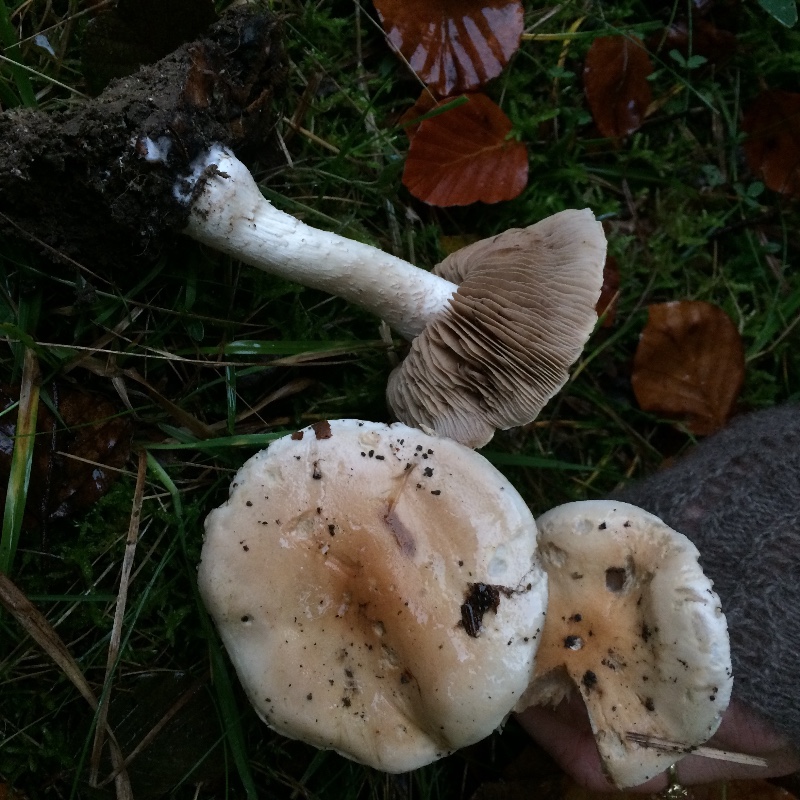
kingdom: Fungi
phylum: Basidiomycota
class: Agaricomycetes
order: Agaricales
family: Hymenogastraceae
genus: Hebeloma
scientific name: Hebeloma sinapizans
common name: ræddike-tåreblad
